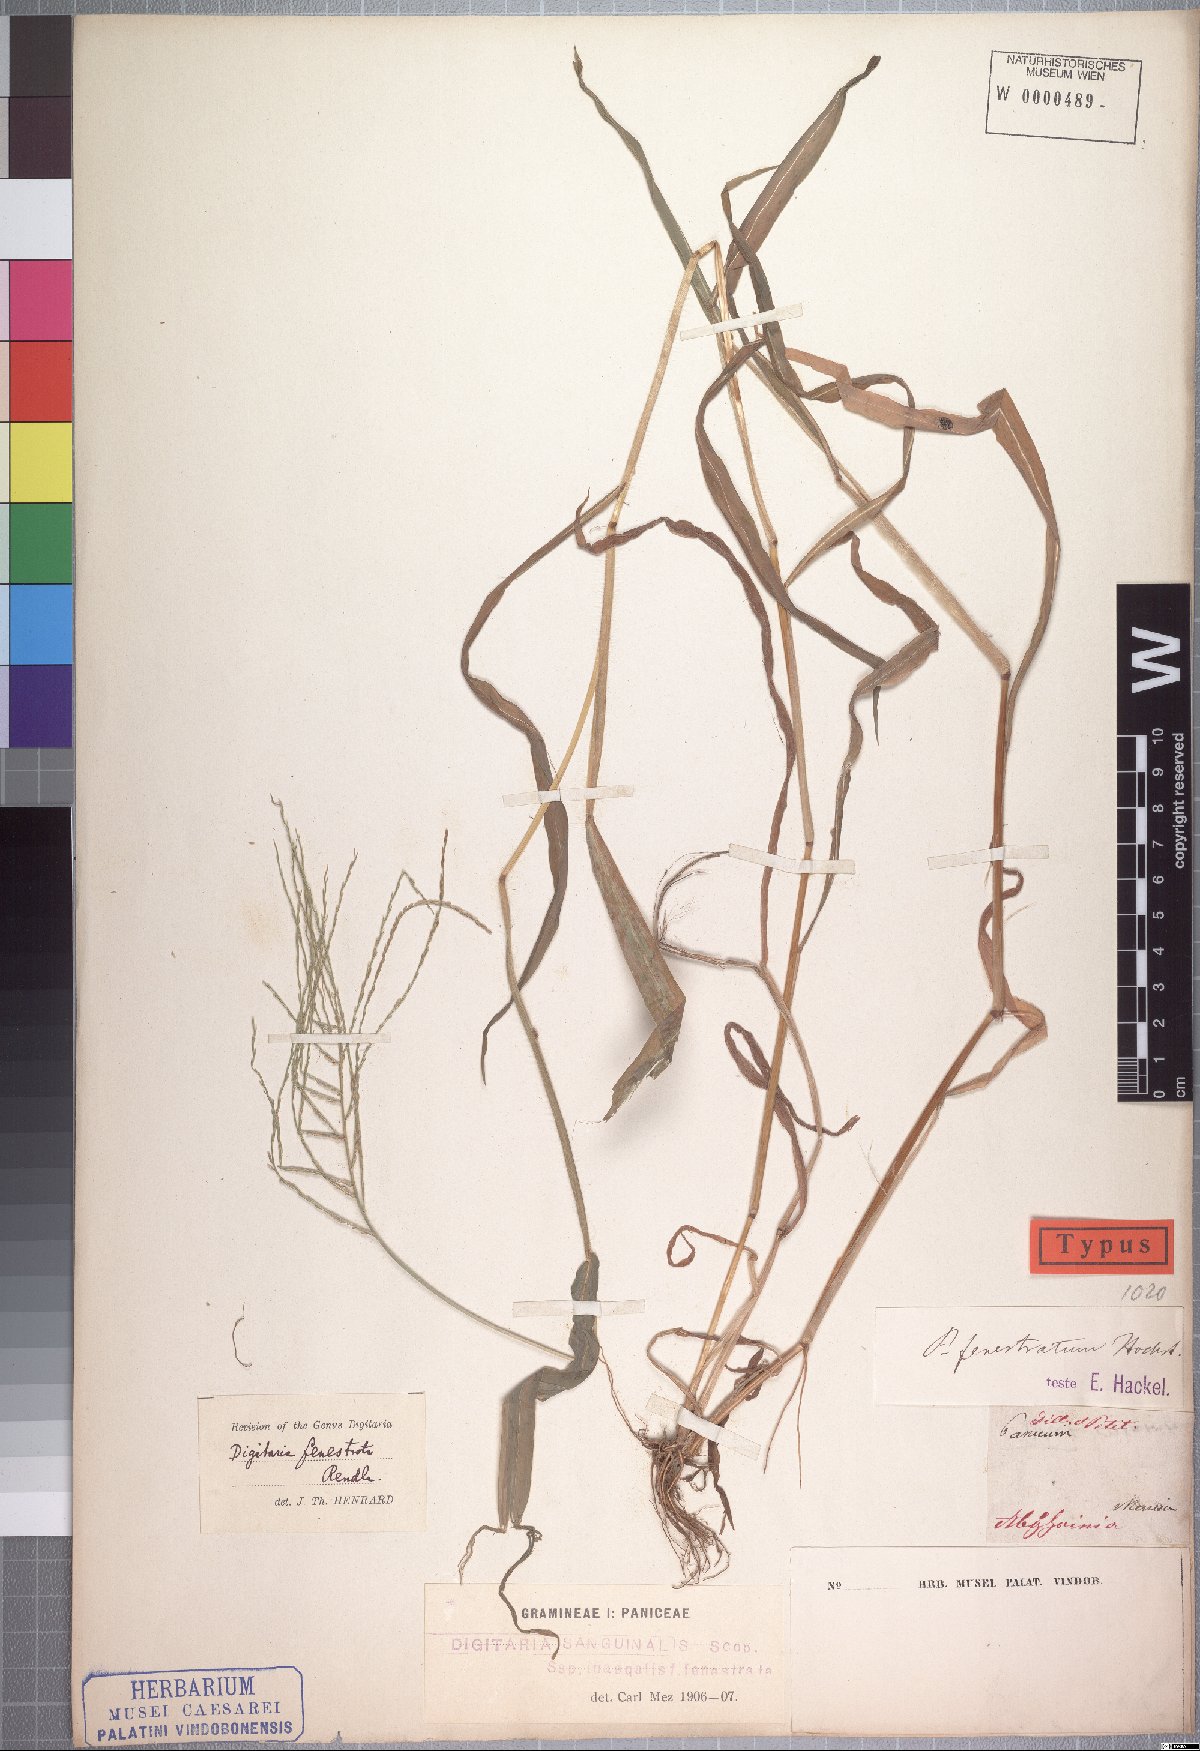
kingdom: Plantae
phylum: Tracheophyta
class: Liliopsida
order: Poales
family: Poaceae
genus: Digitaria
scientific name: Digitaria velutina
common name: Long-plume finger grass
